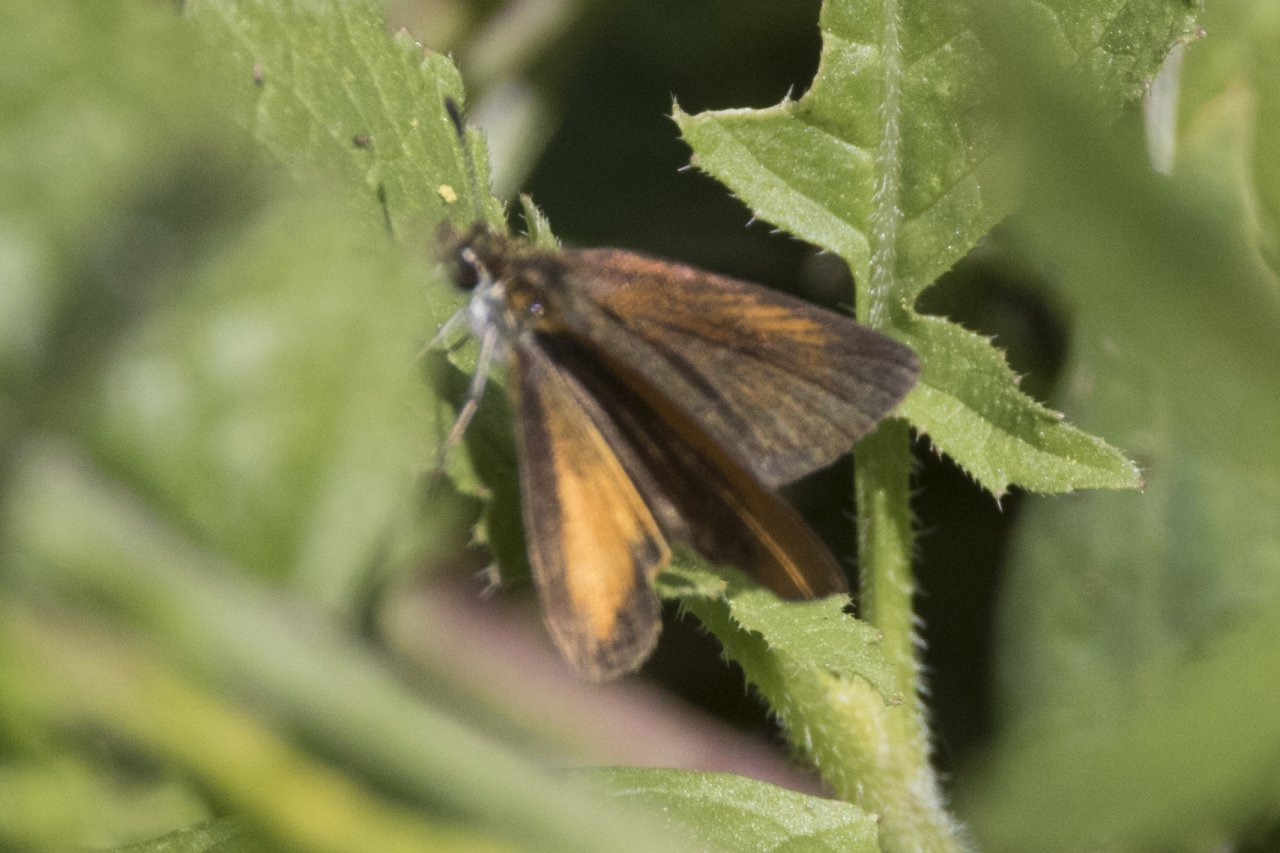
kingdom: Animalia
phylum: Arthropoda
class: Insecta
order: Lepidoptera
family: Hesperiidae
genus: Ancyloxypha
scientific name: Ancyloxypha numitor
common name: Least Skipper
